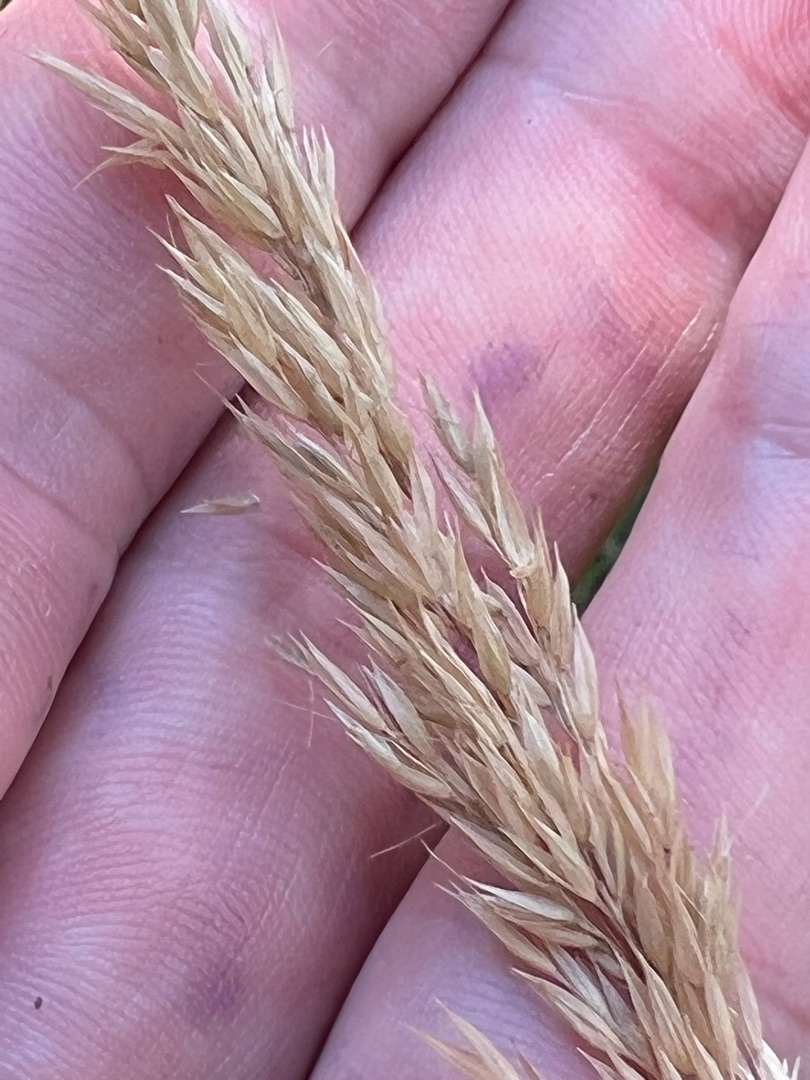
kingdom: Plantae
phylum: Tracheophyta
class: Liliopsida
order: Poales
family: Poaceae
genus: Calamagrostis
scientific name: Calamagrostis arundinacea
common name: Skov-rørhvene
